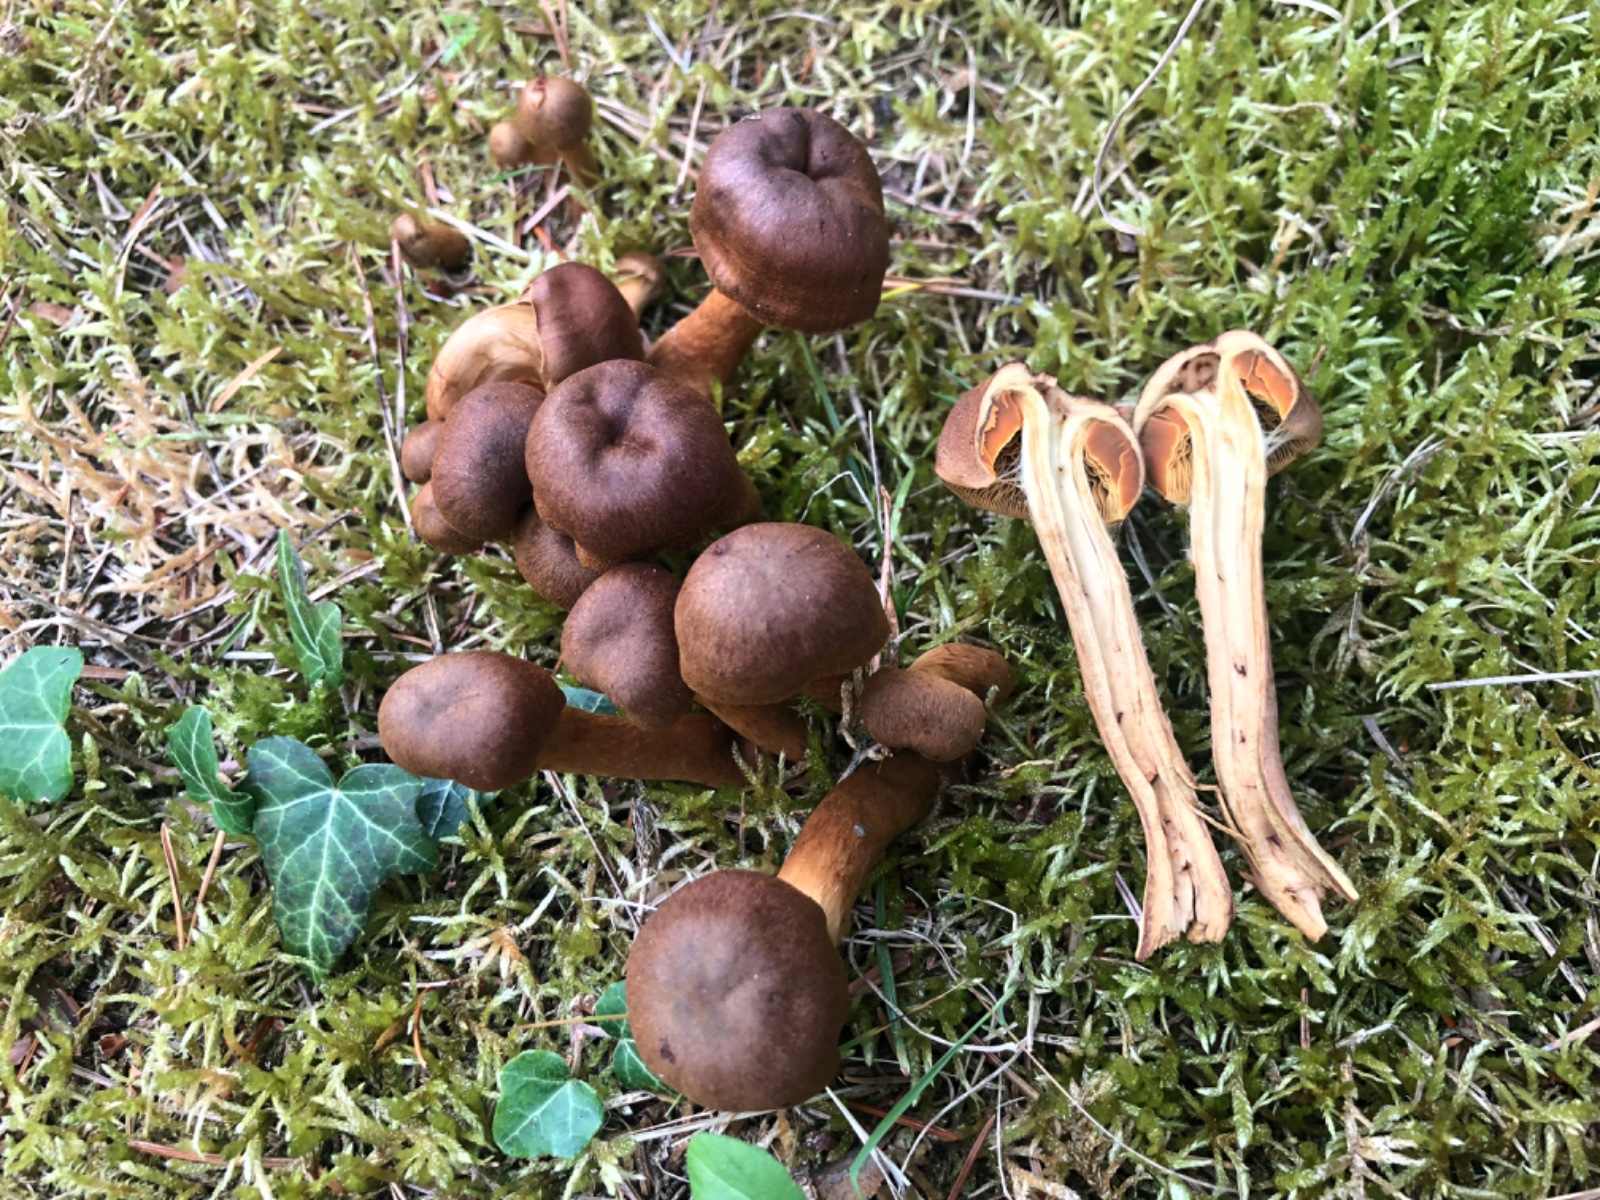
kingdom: Fungi
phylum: Basidiomycota
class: Agaricomycetes
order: Agaricales
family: Cortinariaceae
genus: Cortinarius
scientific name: Cortinarius
